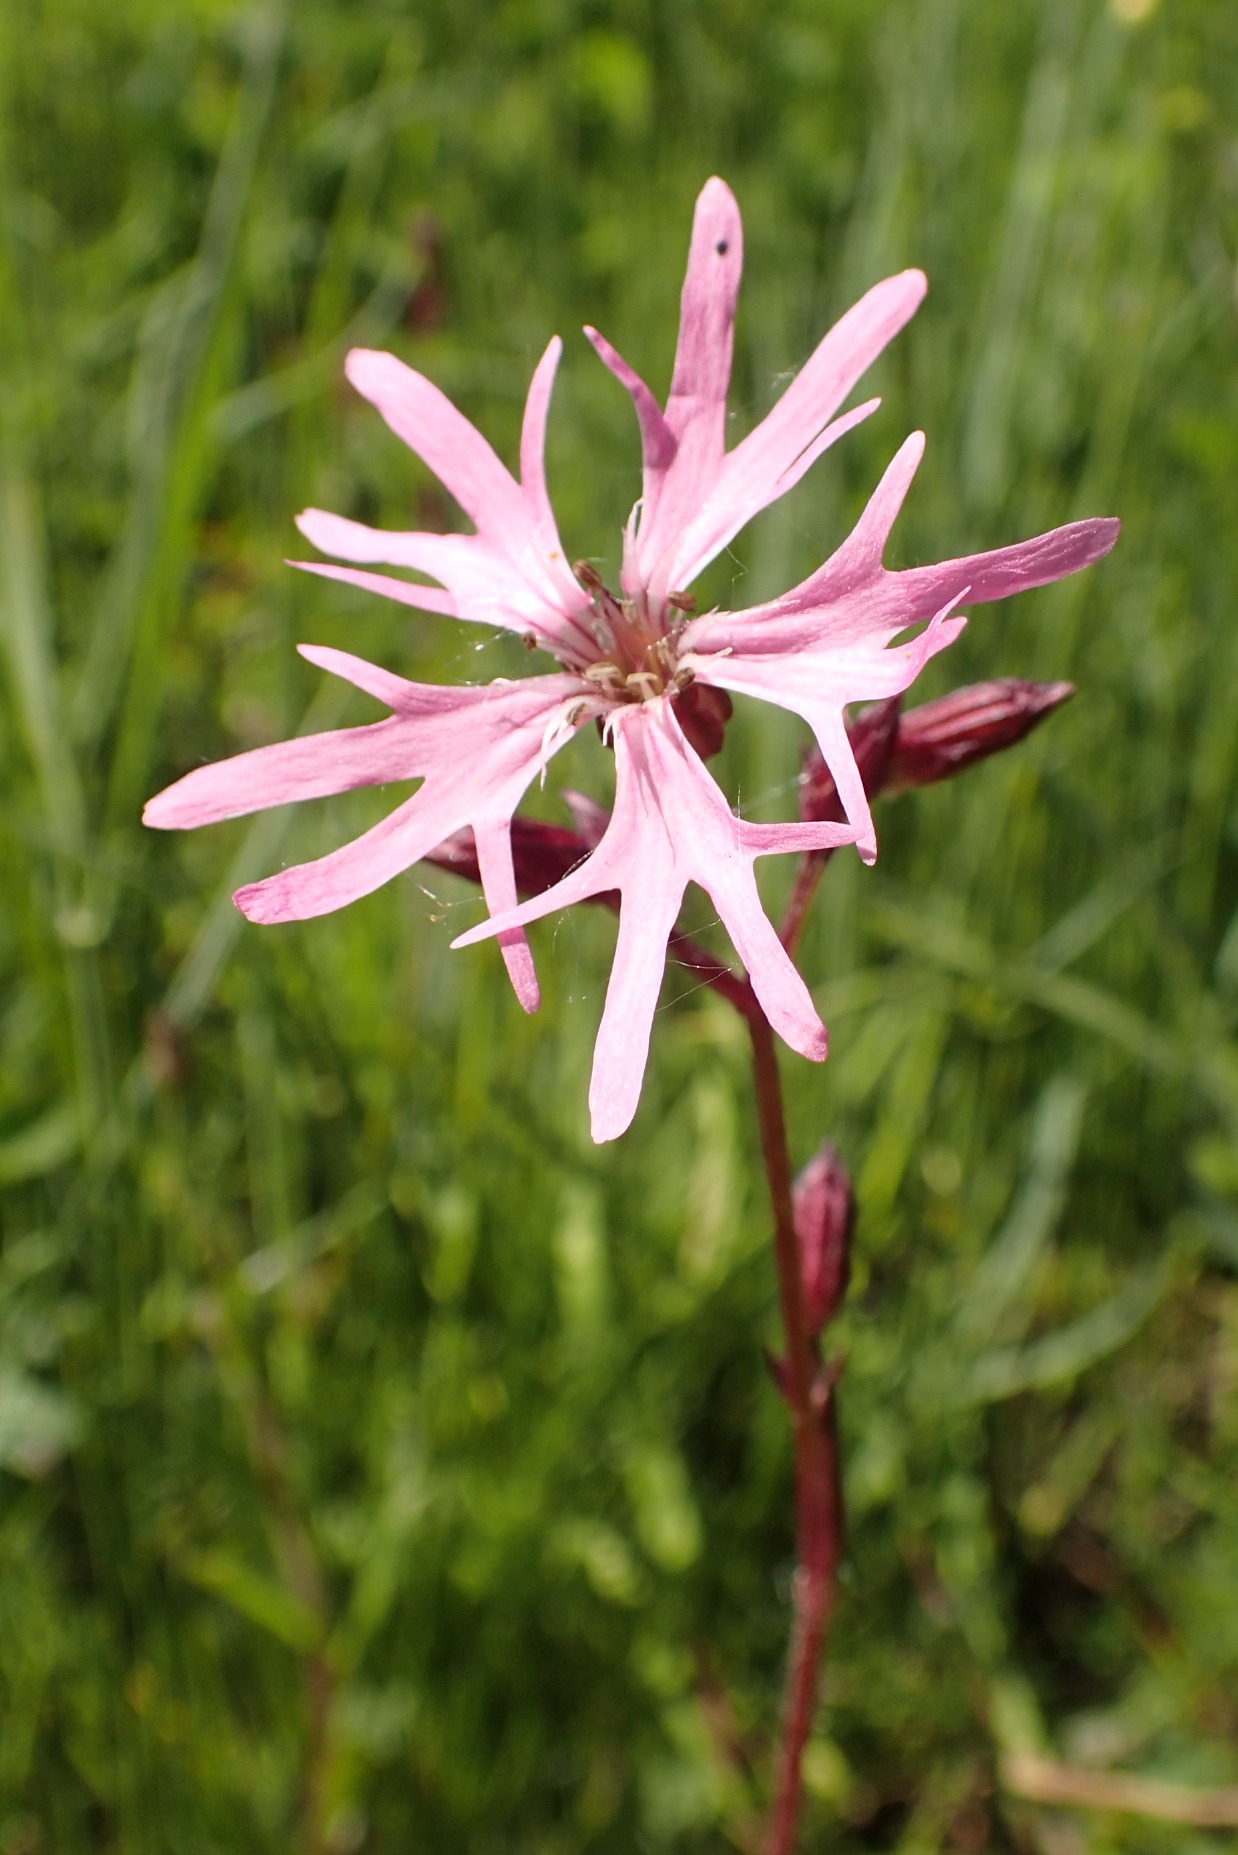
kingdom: Plantae
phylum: Tracheophyta
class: Magnoliopsida
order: Caryophyllales
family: Caryophyllaceae
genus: Silene
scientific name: Silene flos-cuculi
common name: Trævlekrone
